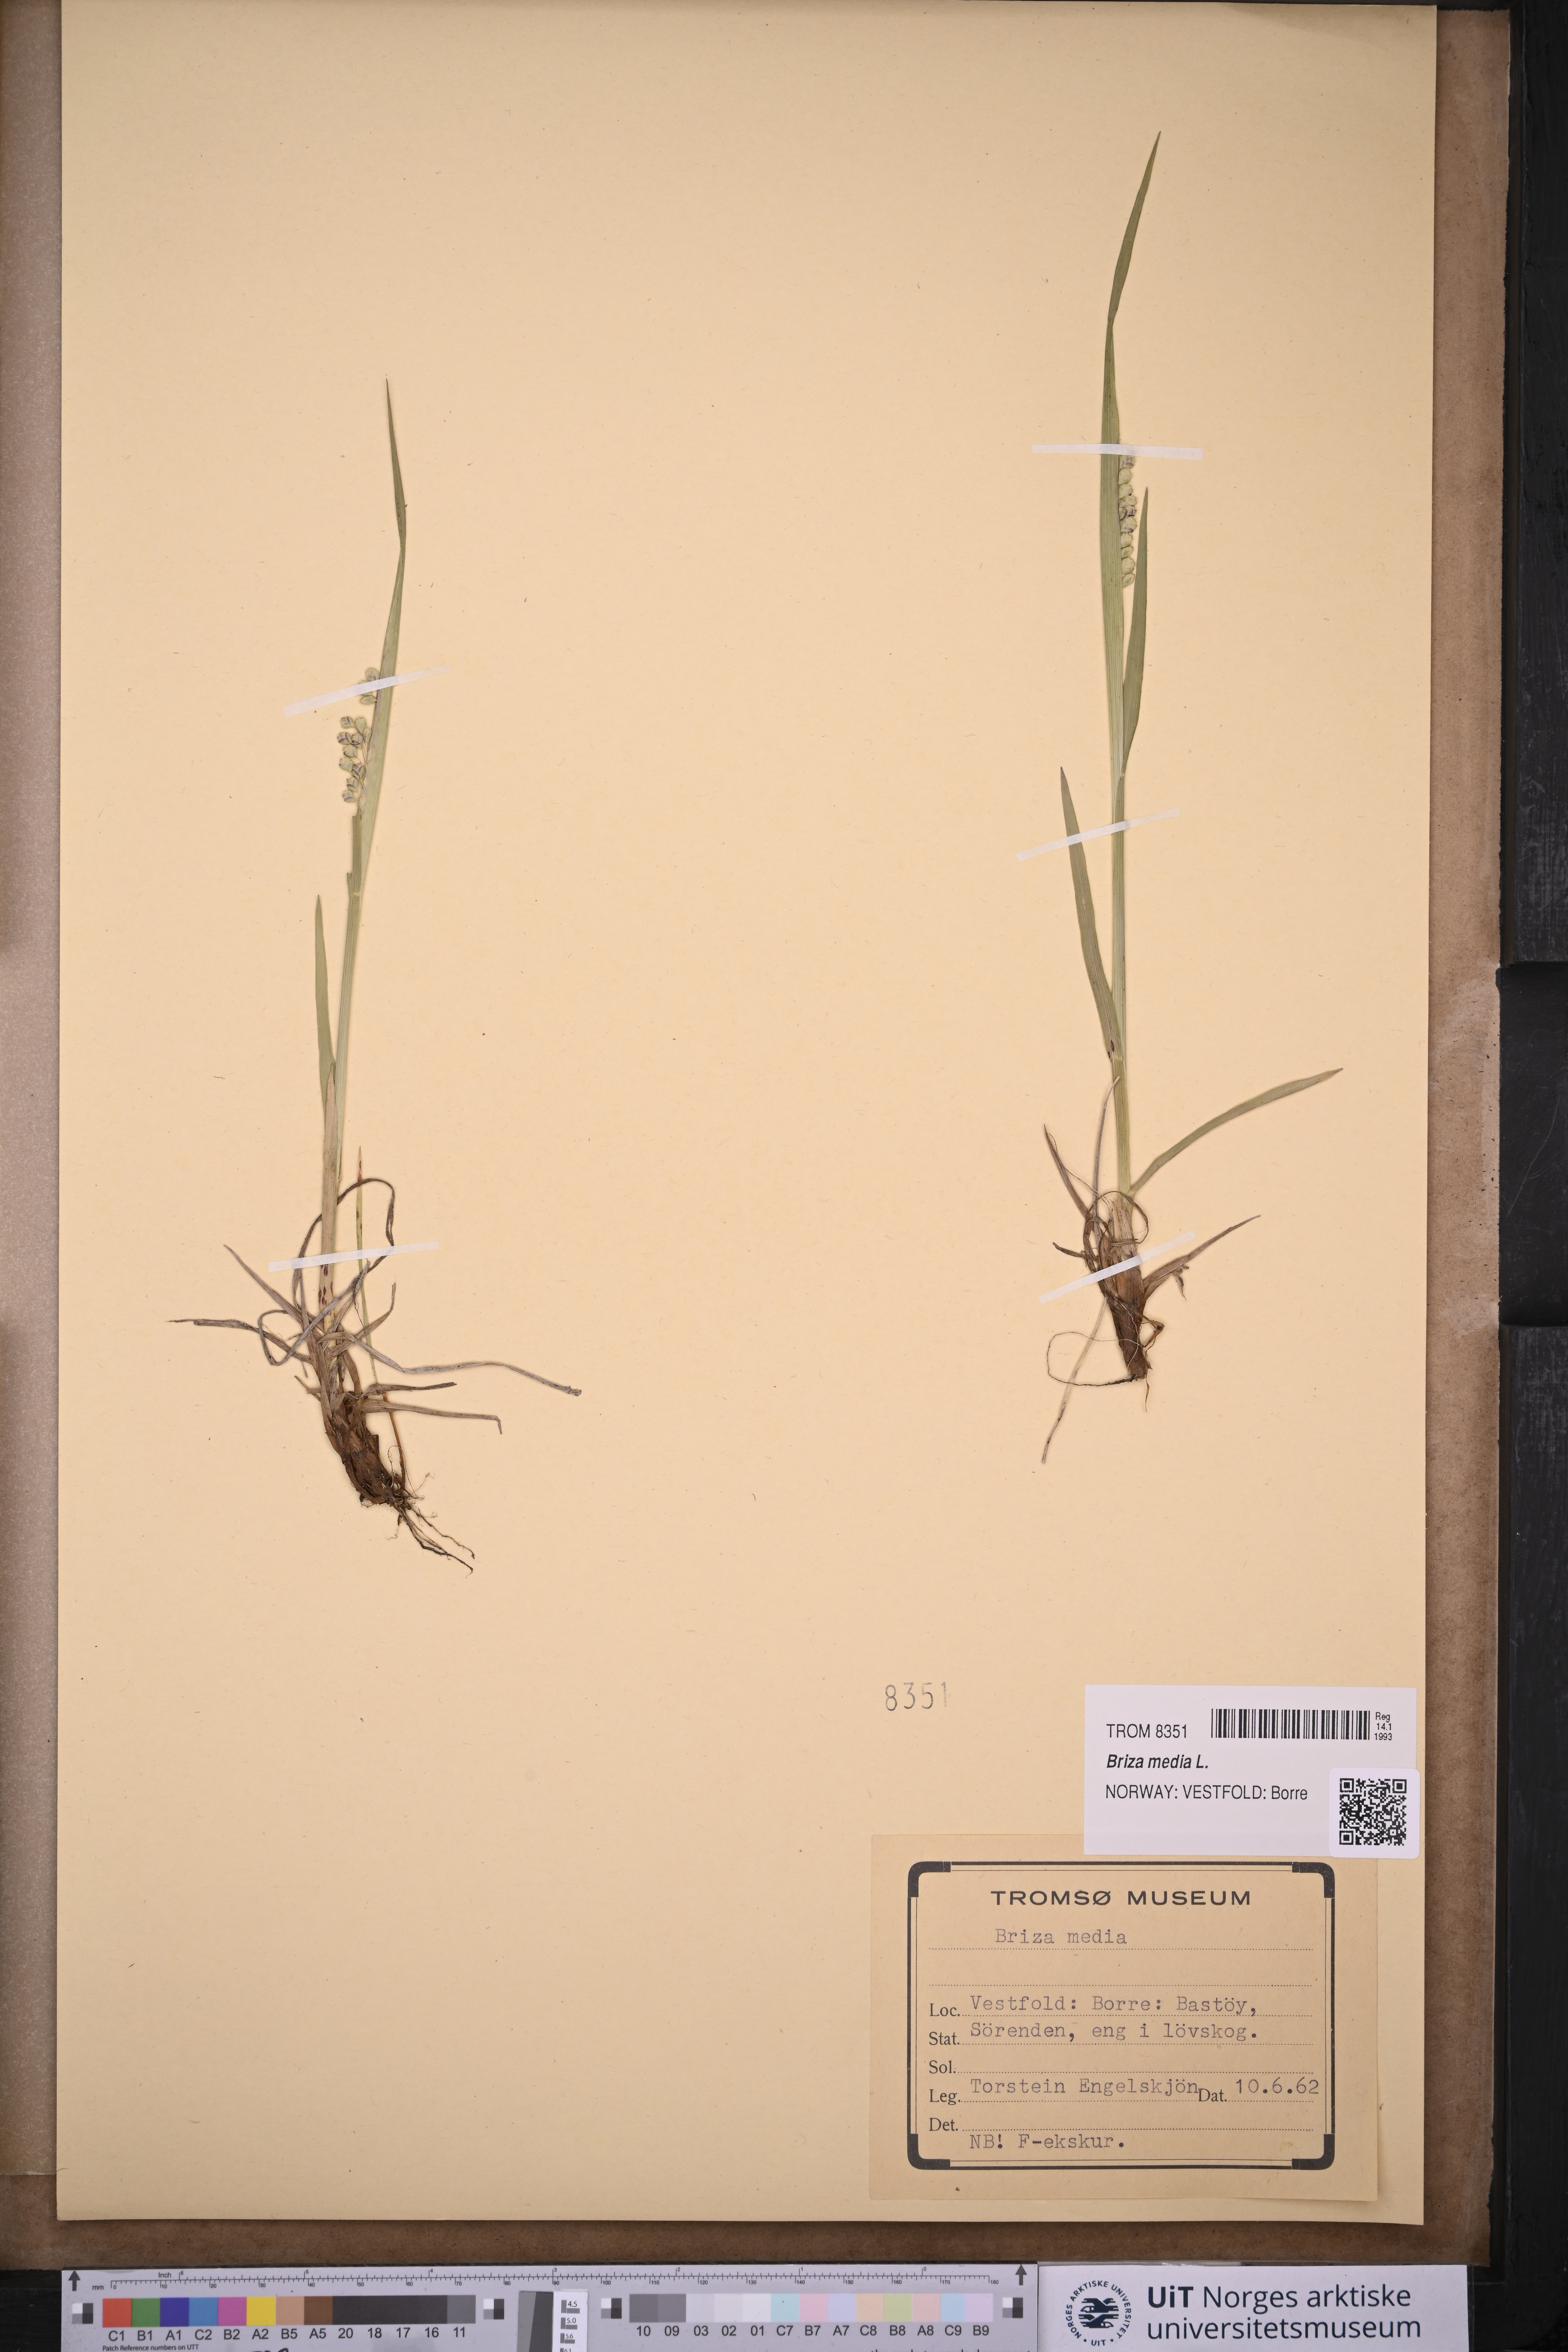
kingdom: Plantae
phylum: Tracheophyta
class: Liliopsida
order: Poales
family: Poaceae
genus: Briza
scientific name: Briza media
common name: Quaking grass
